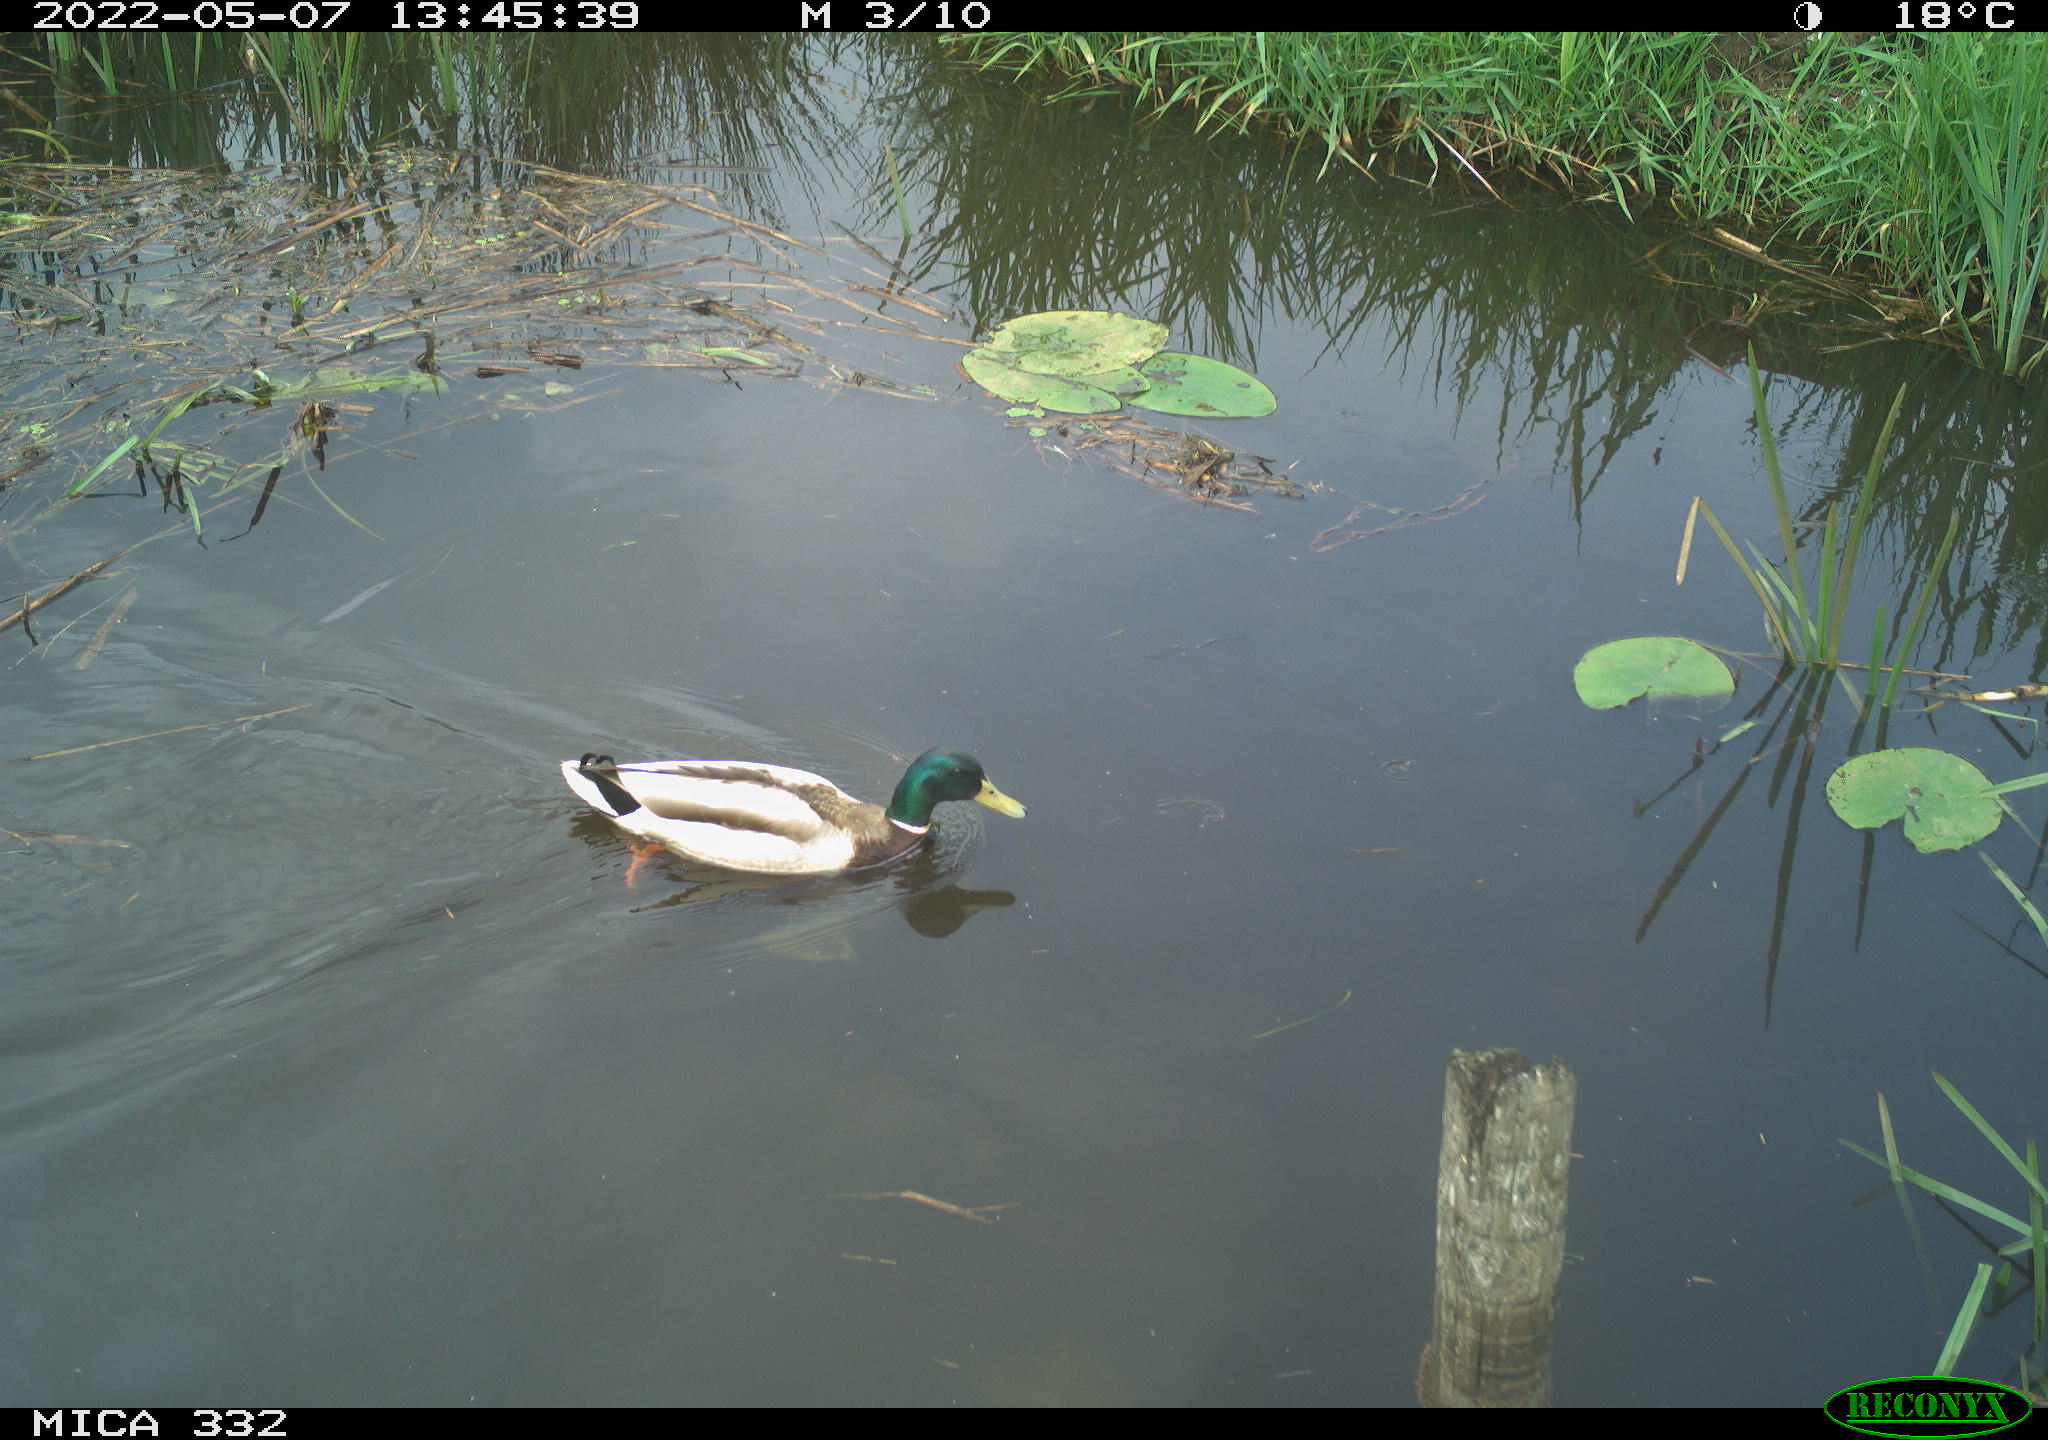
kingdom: Animalia
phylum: Chordata
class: Aves
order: Anseriformes
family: Anatidae
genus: Anas
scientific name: Anas platyrhynchos
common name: Mallard
